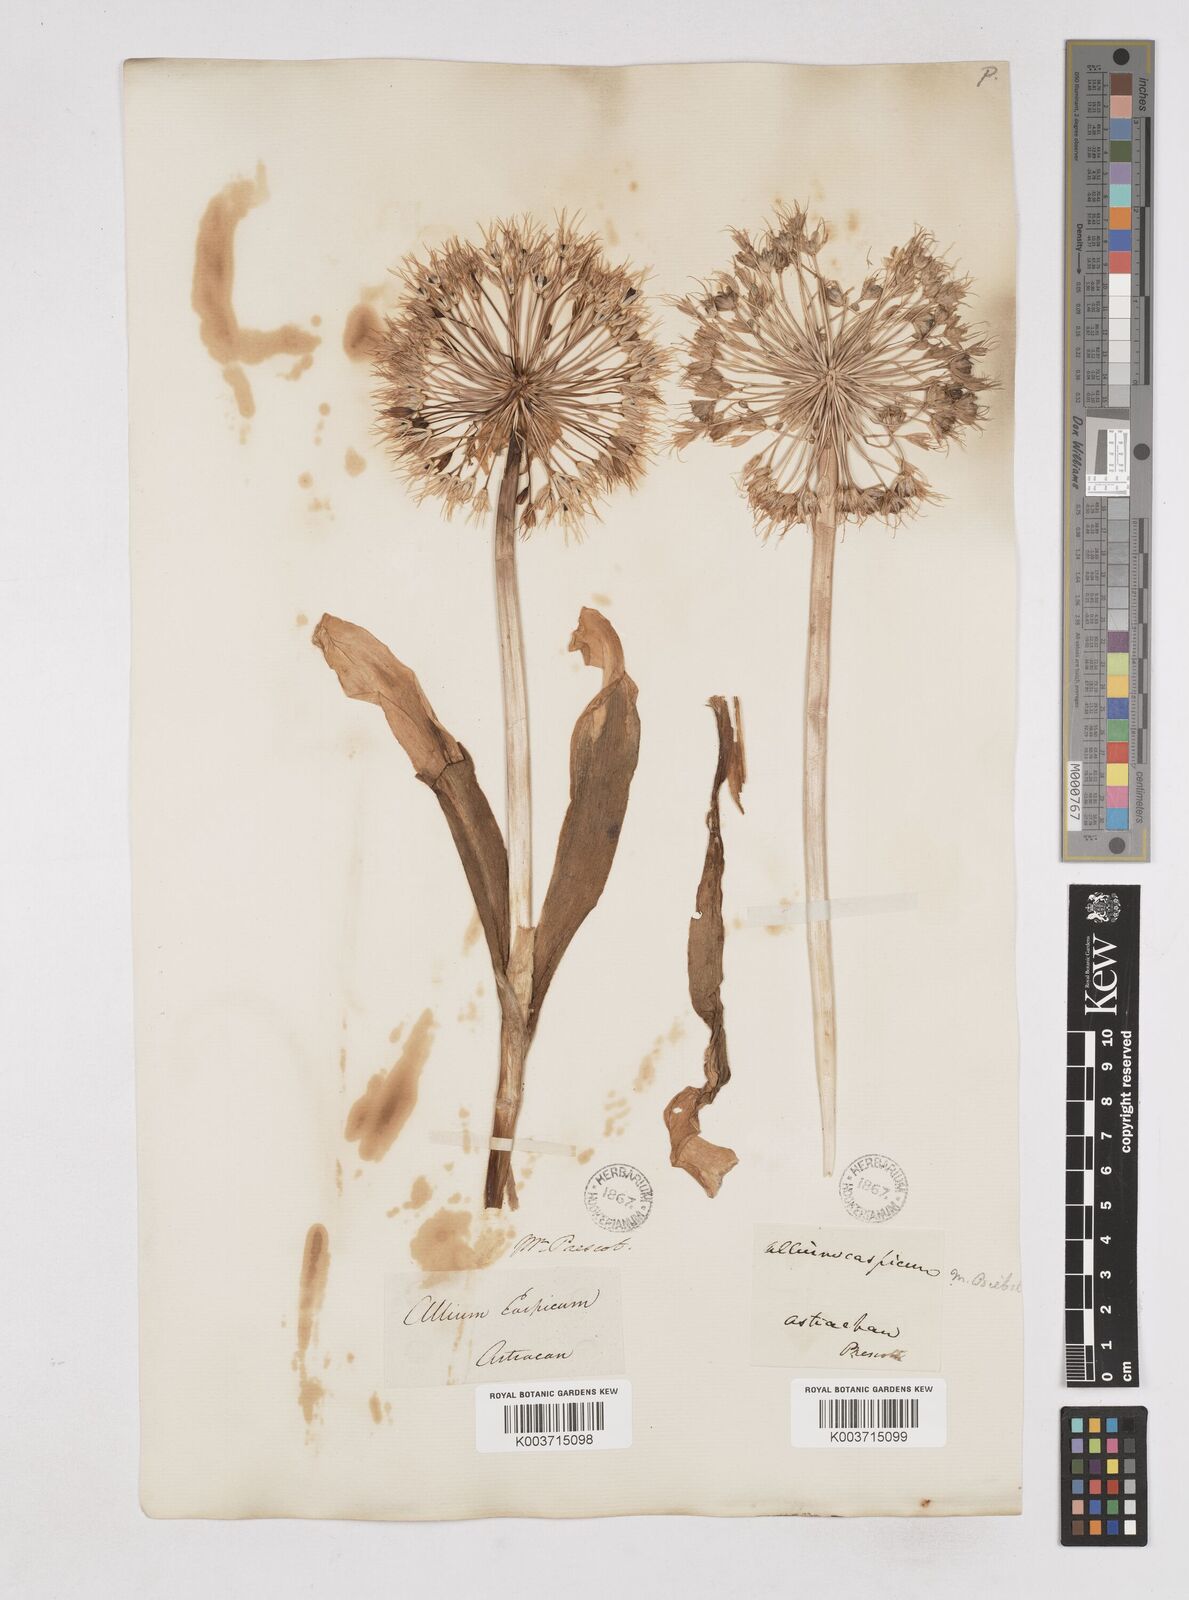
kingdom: Plantae
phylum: Tracheophyta
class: Liliopsida
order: Asparagales
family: Amaryllidaceae
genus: Allium
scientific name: Allium caspium
